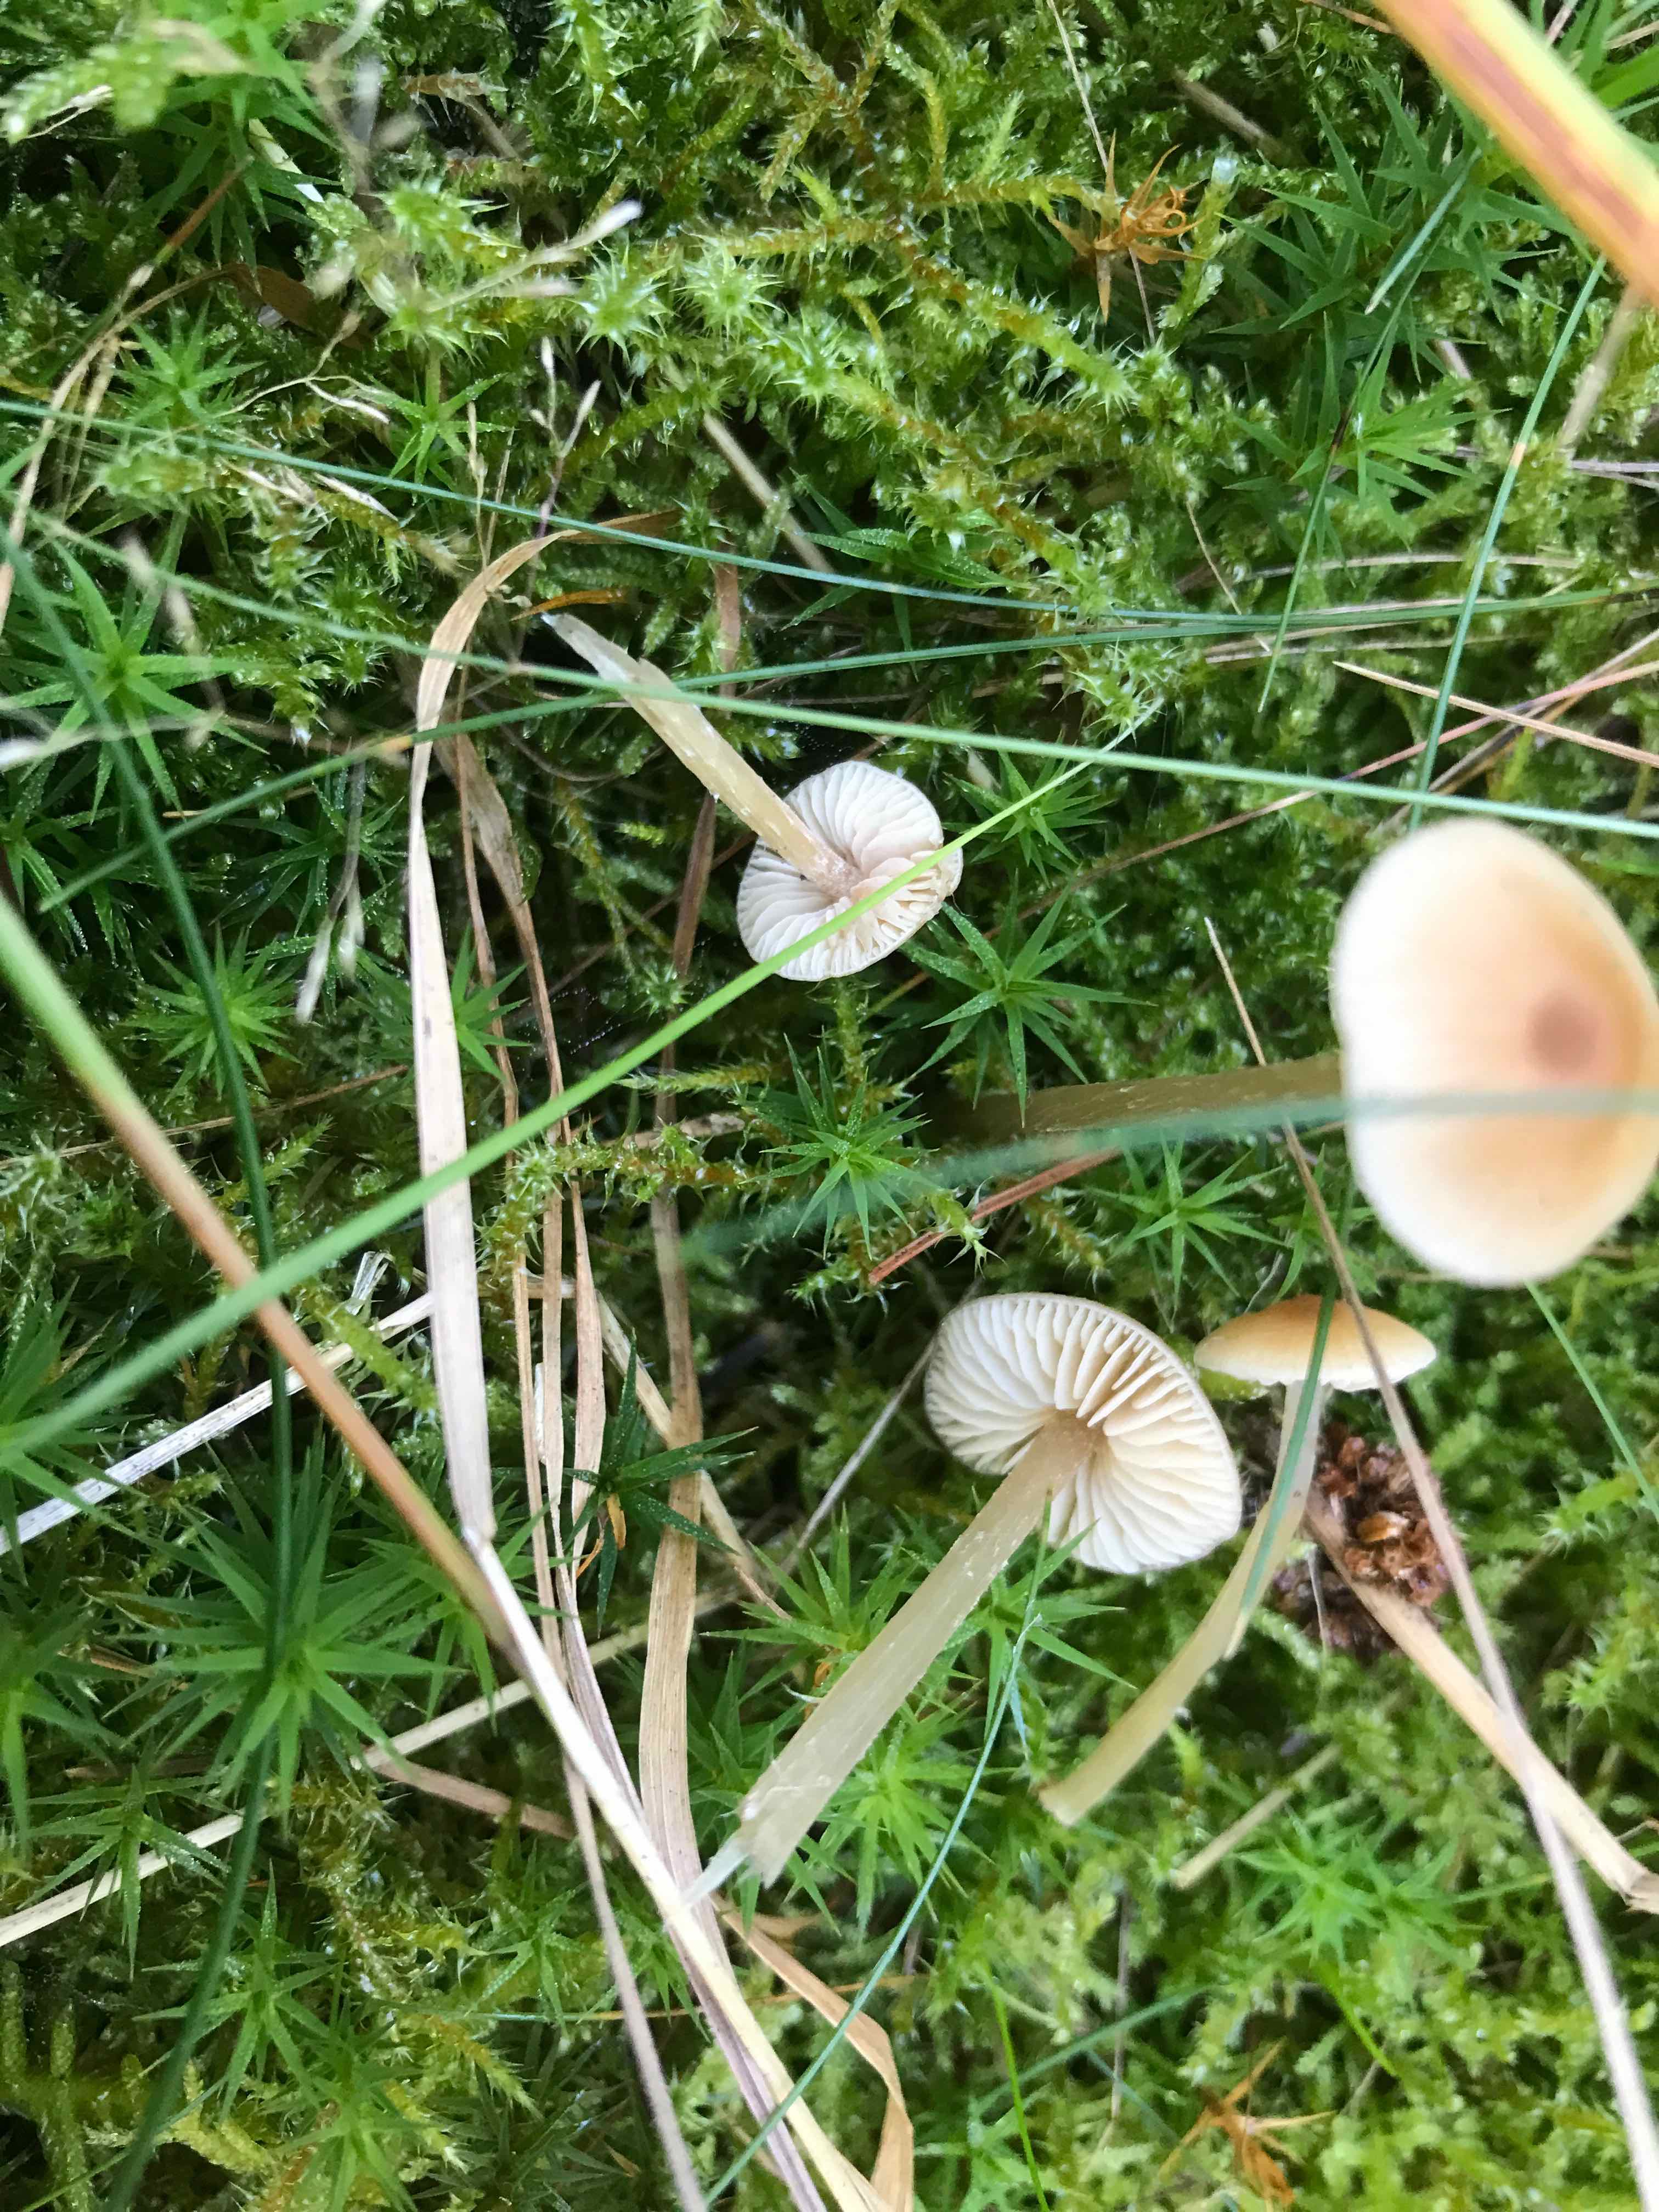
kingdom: Fungi
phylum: Basidiomycota
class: Agaricomycetes
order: Agaricales
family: Entolomataceae
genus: Entoloma
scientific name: Entoloma cetratum
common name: voks-rødblad
